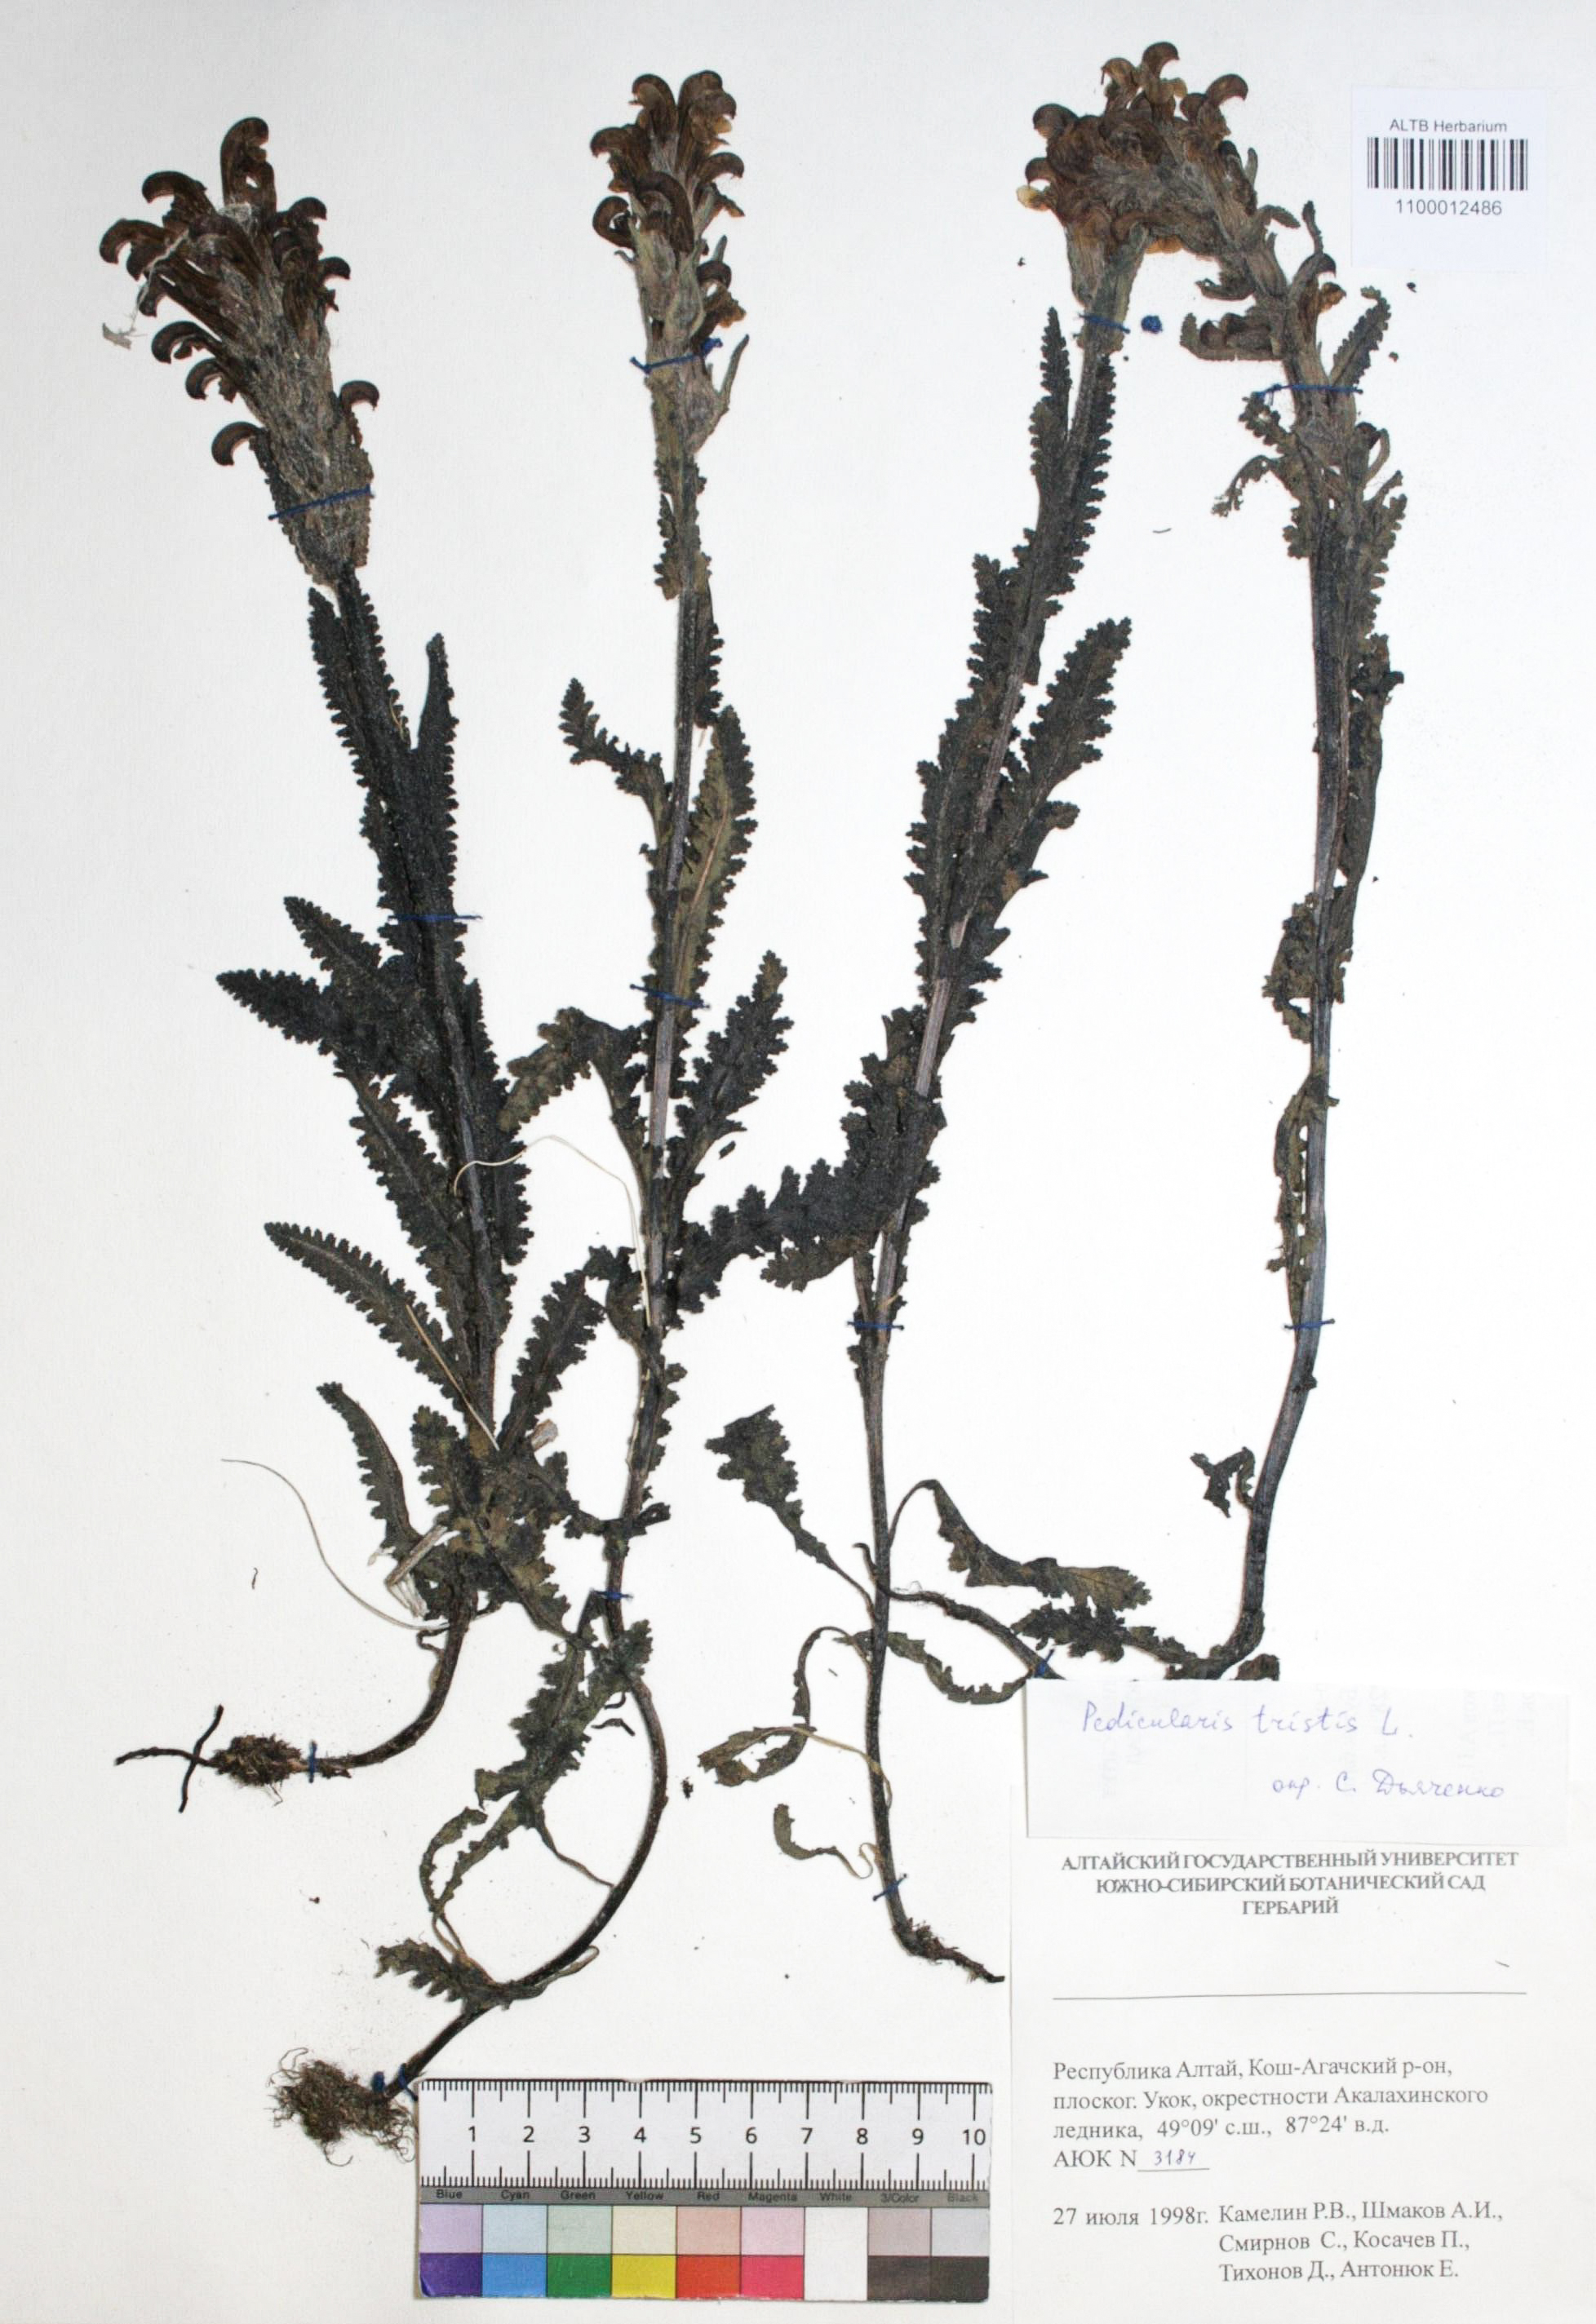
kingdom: Plantae
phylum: Tracheophyta
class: Magnoliopsida
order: Lamiales
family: Orobanchaceae
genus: Pedicularis
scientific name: Pedicularis tristis
